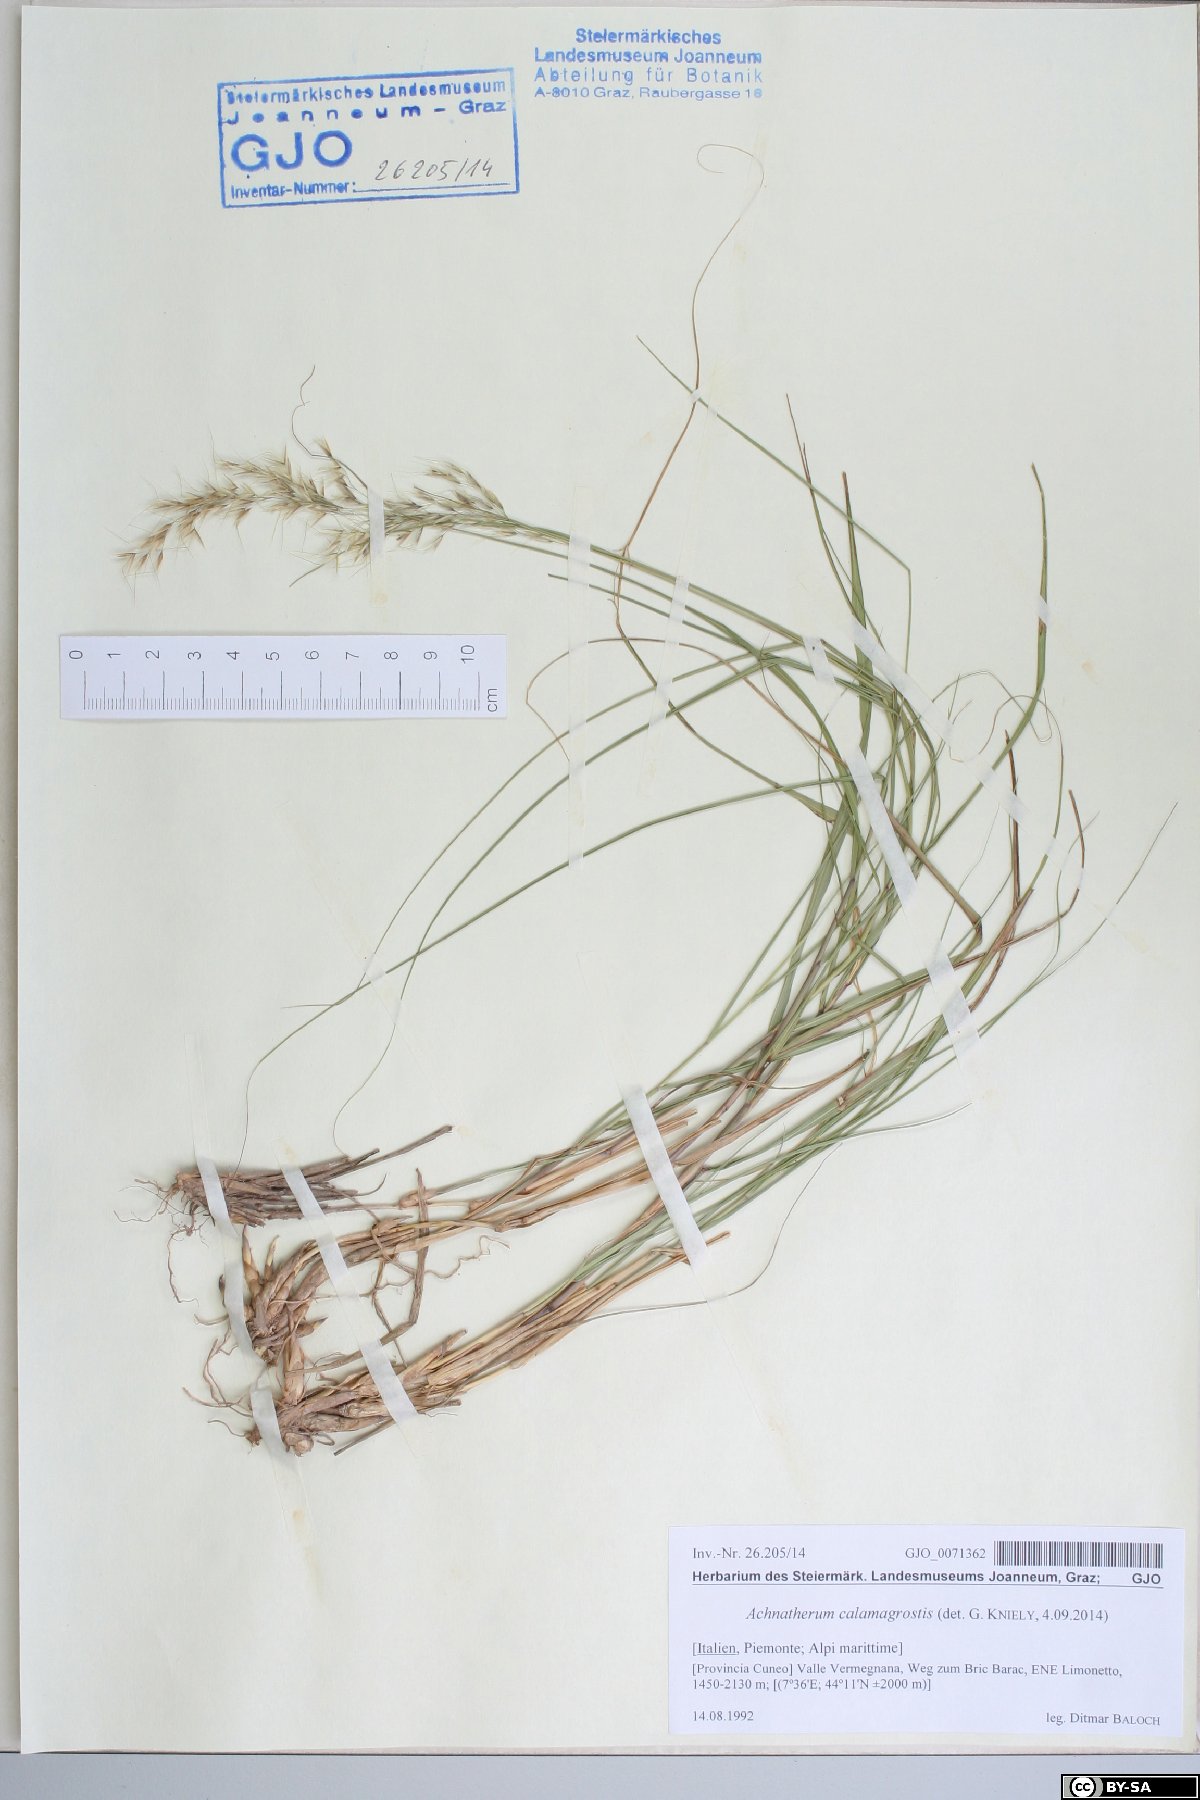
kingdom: Plantae
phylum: Tracheophyta
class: Liliopsida
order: Poales
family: Poaceae
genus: Achnatherum
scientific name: Achnatherum calamagrostis
